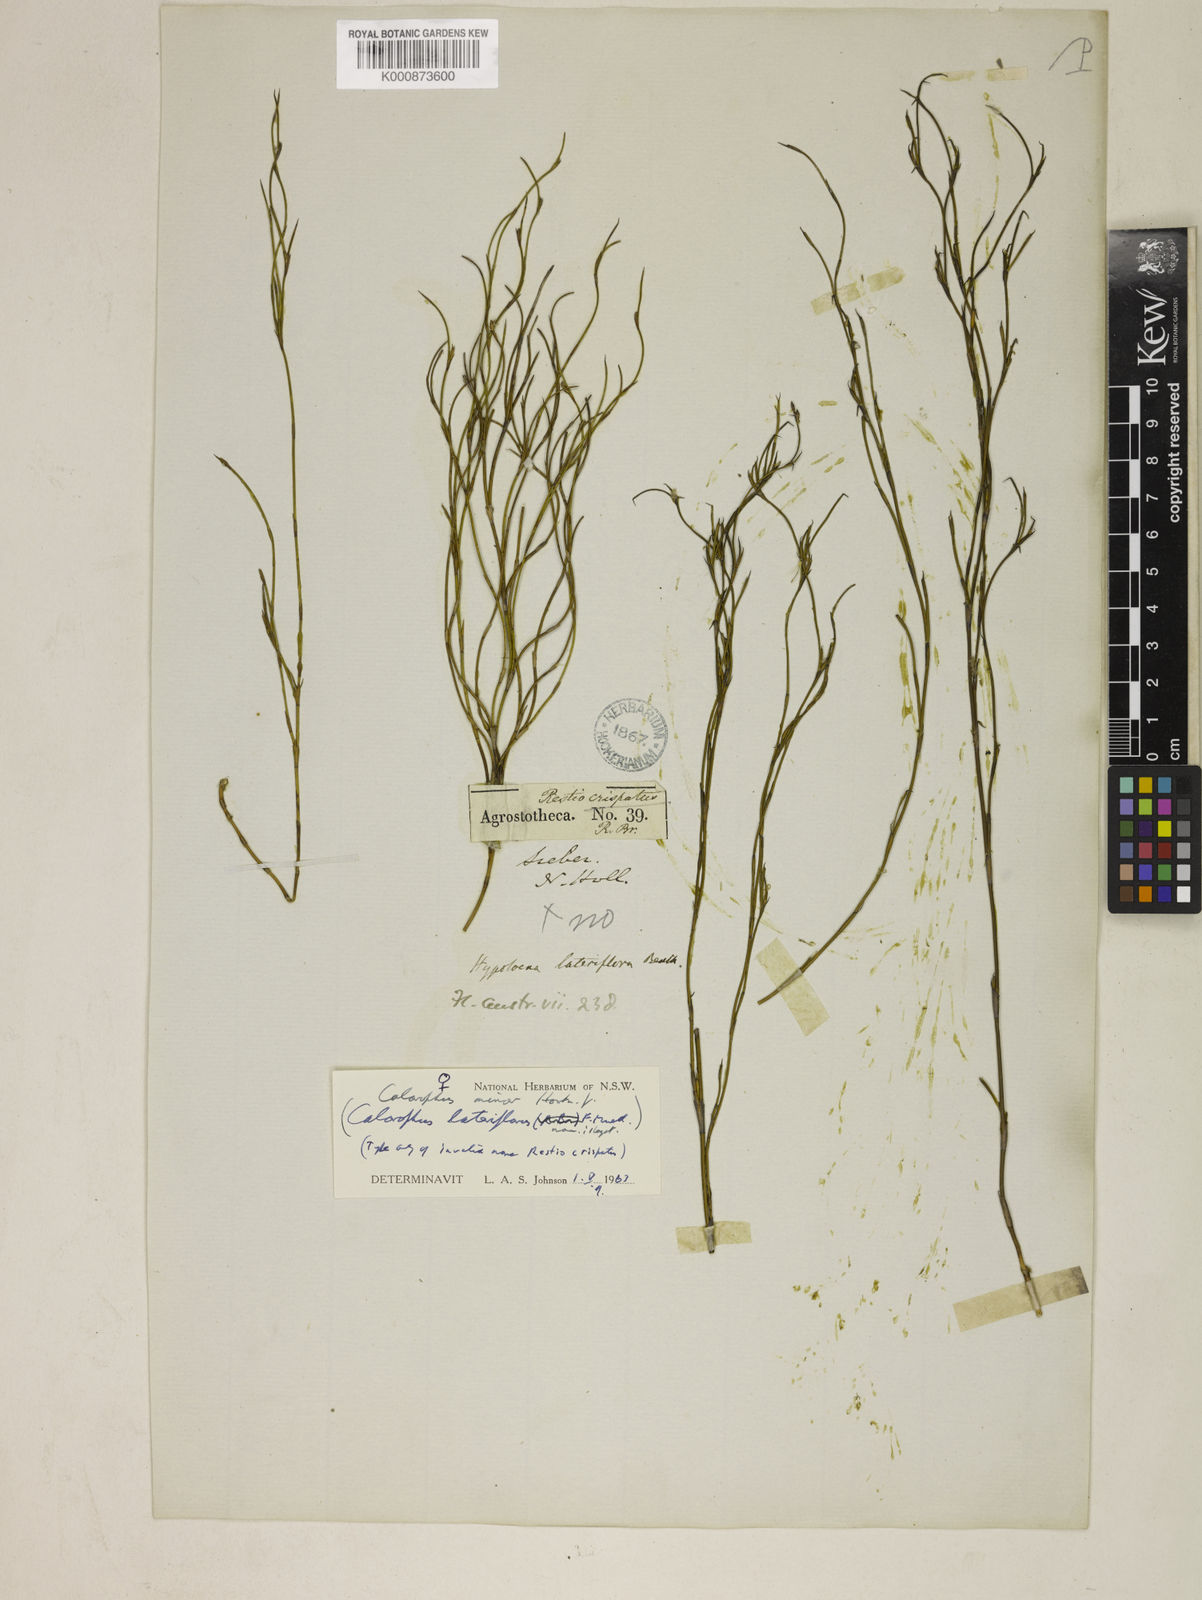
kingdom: Plantae
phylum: Tracheophyta
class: Liliopsida
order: Poales
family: Restionaceae
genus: Empodisma
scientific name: Empodisma minus
